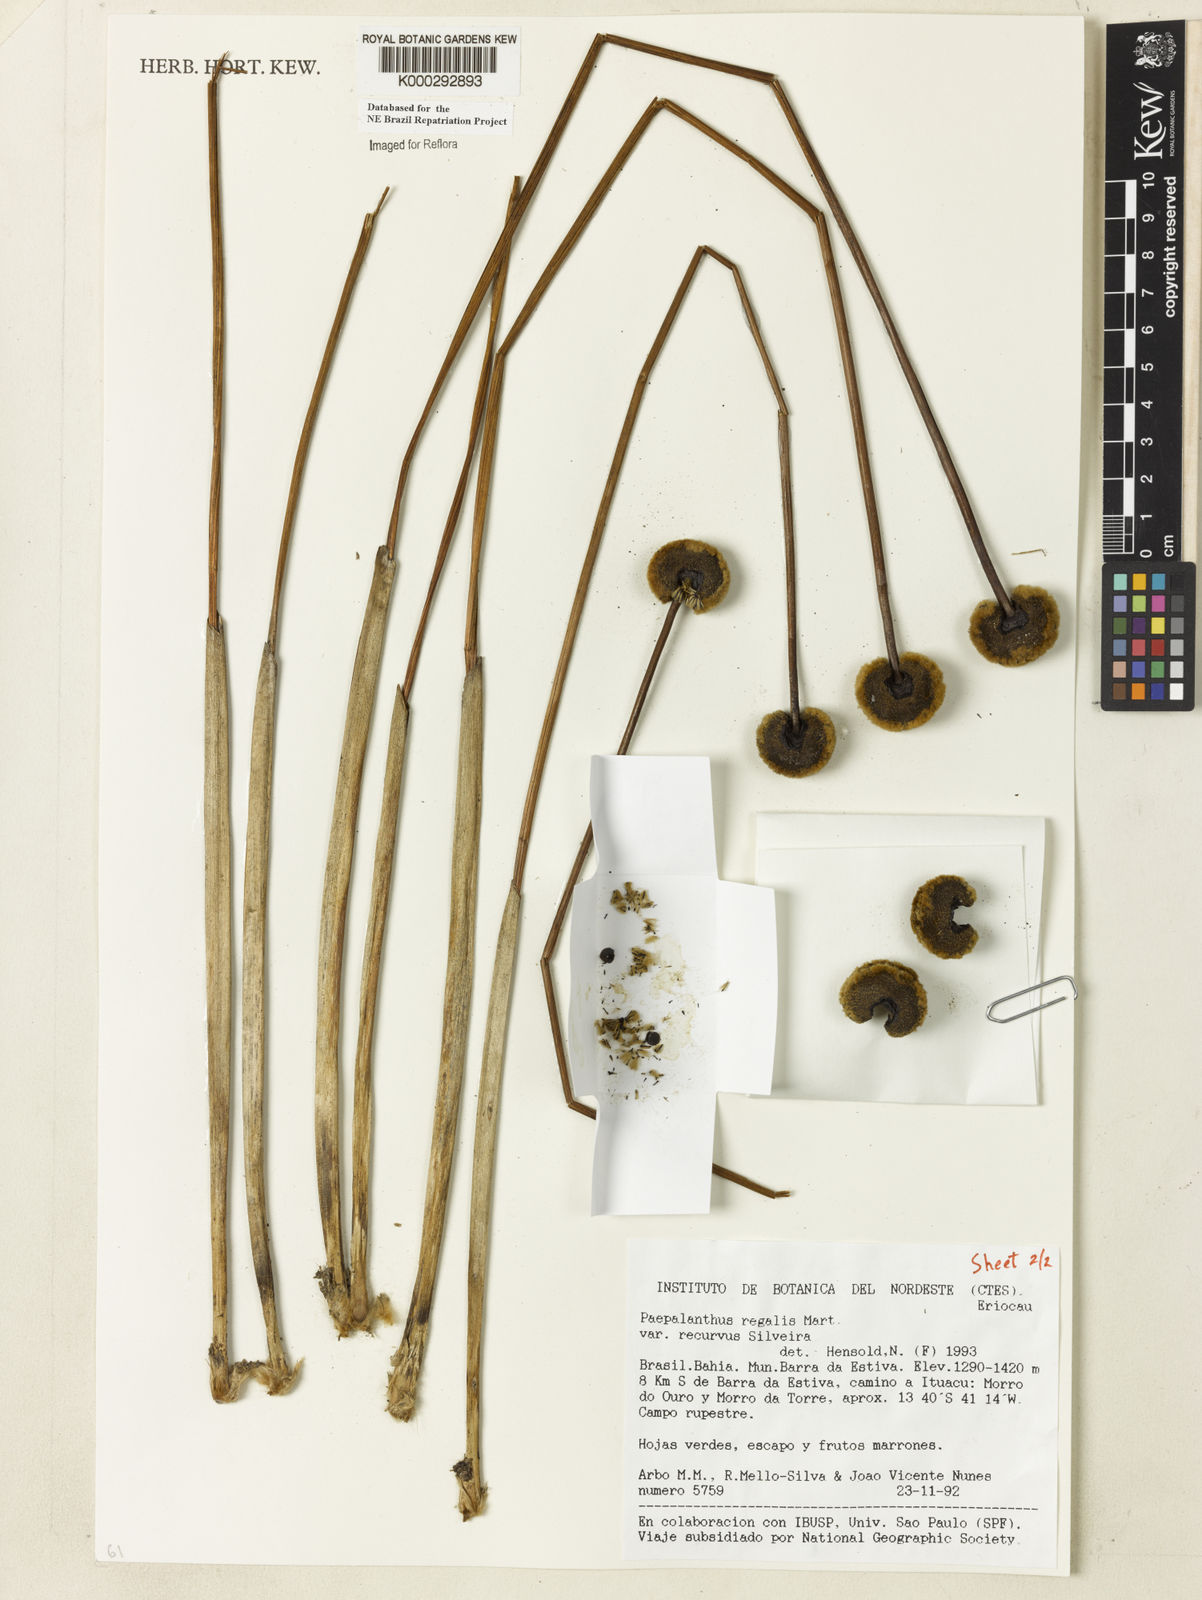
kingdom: Plantae
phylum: Tracheophyta
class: Liliopsida
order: Poales
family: Eriocaulaceae
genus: Paepalanthus
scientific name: Paepalanthus
